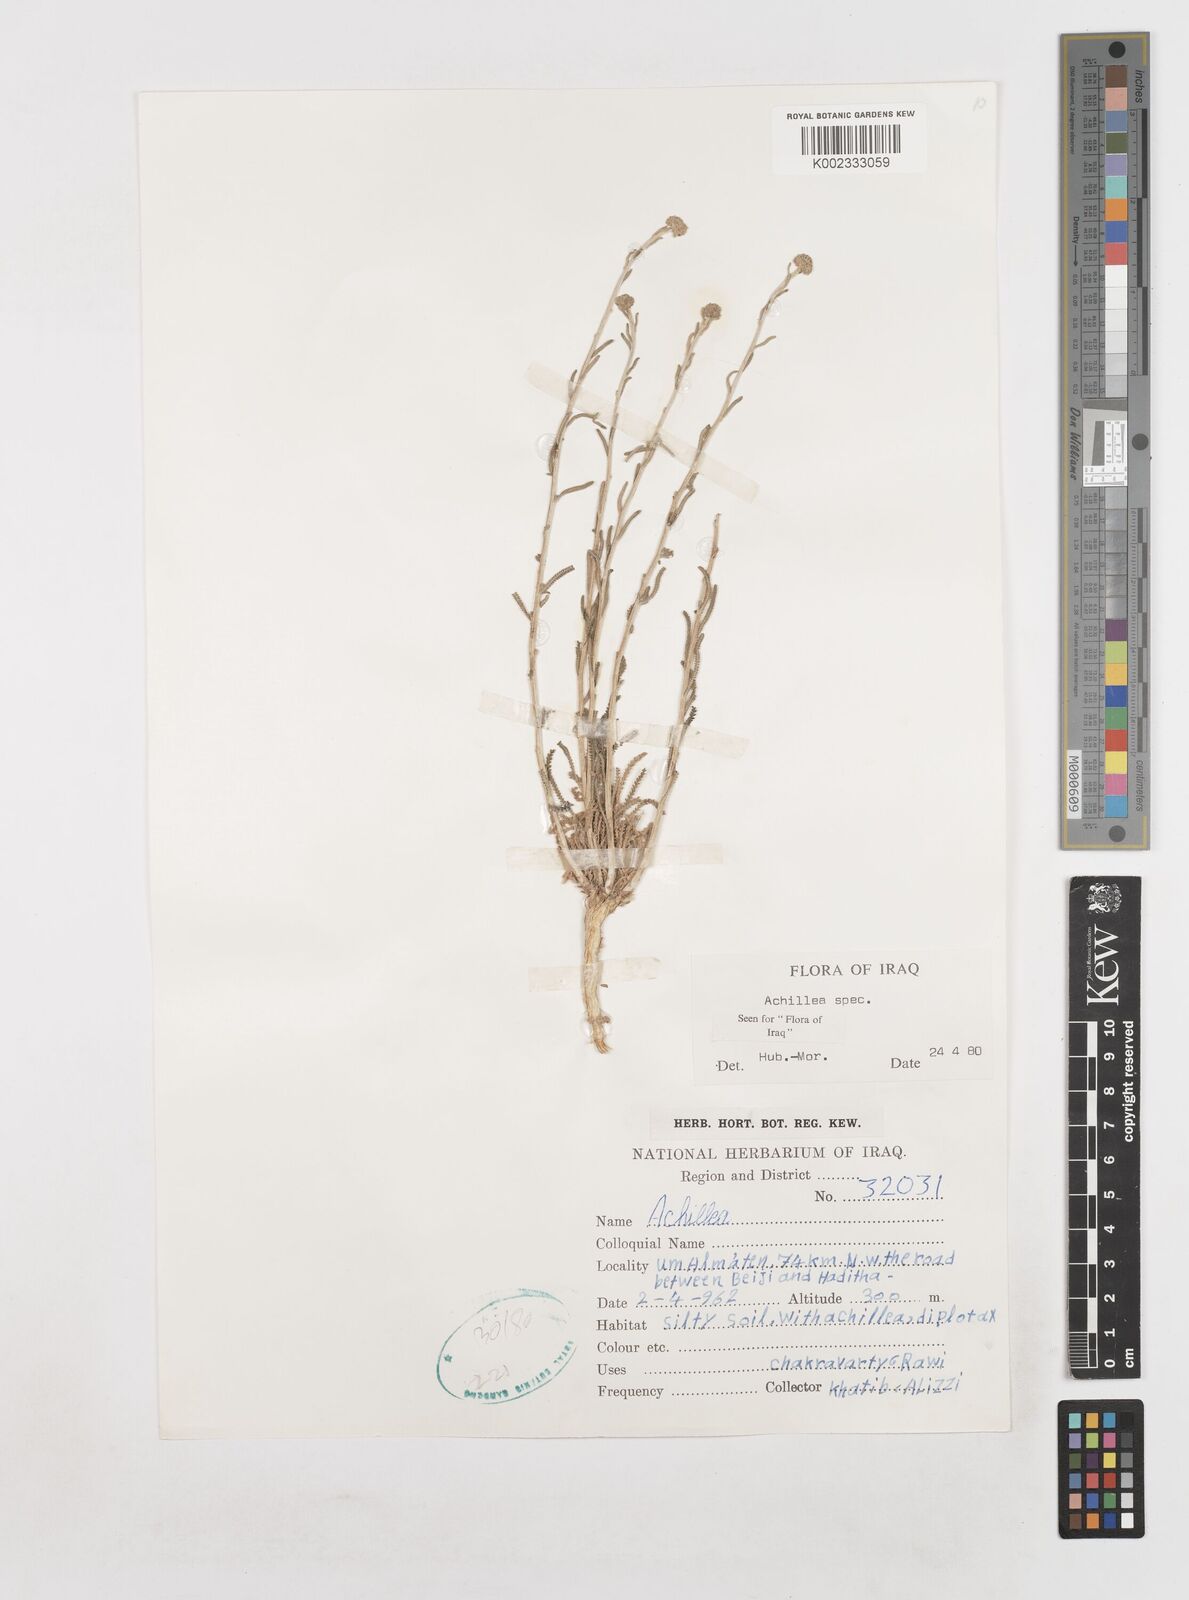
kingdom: Plantae
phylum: Tracheophyta
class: Magnoliopsida
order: Asterales
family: Asteraceae
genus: Achillea
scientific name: Achillea
